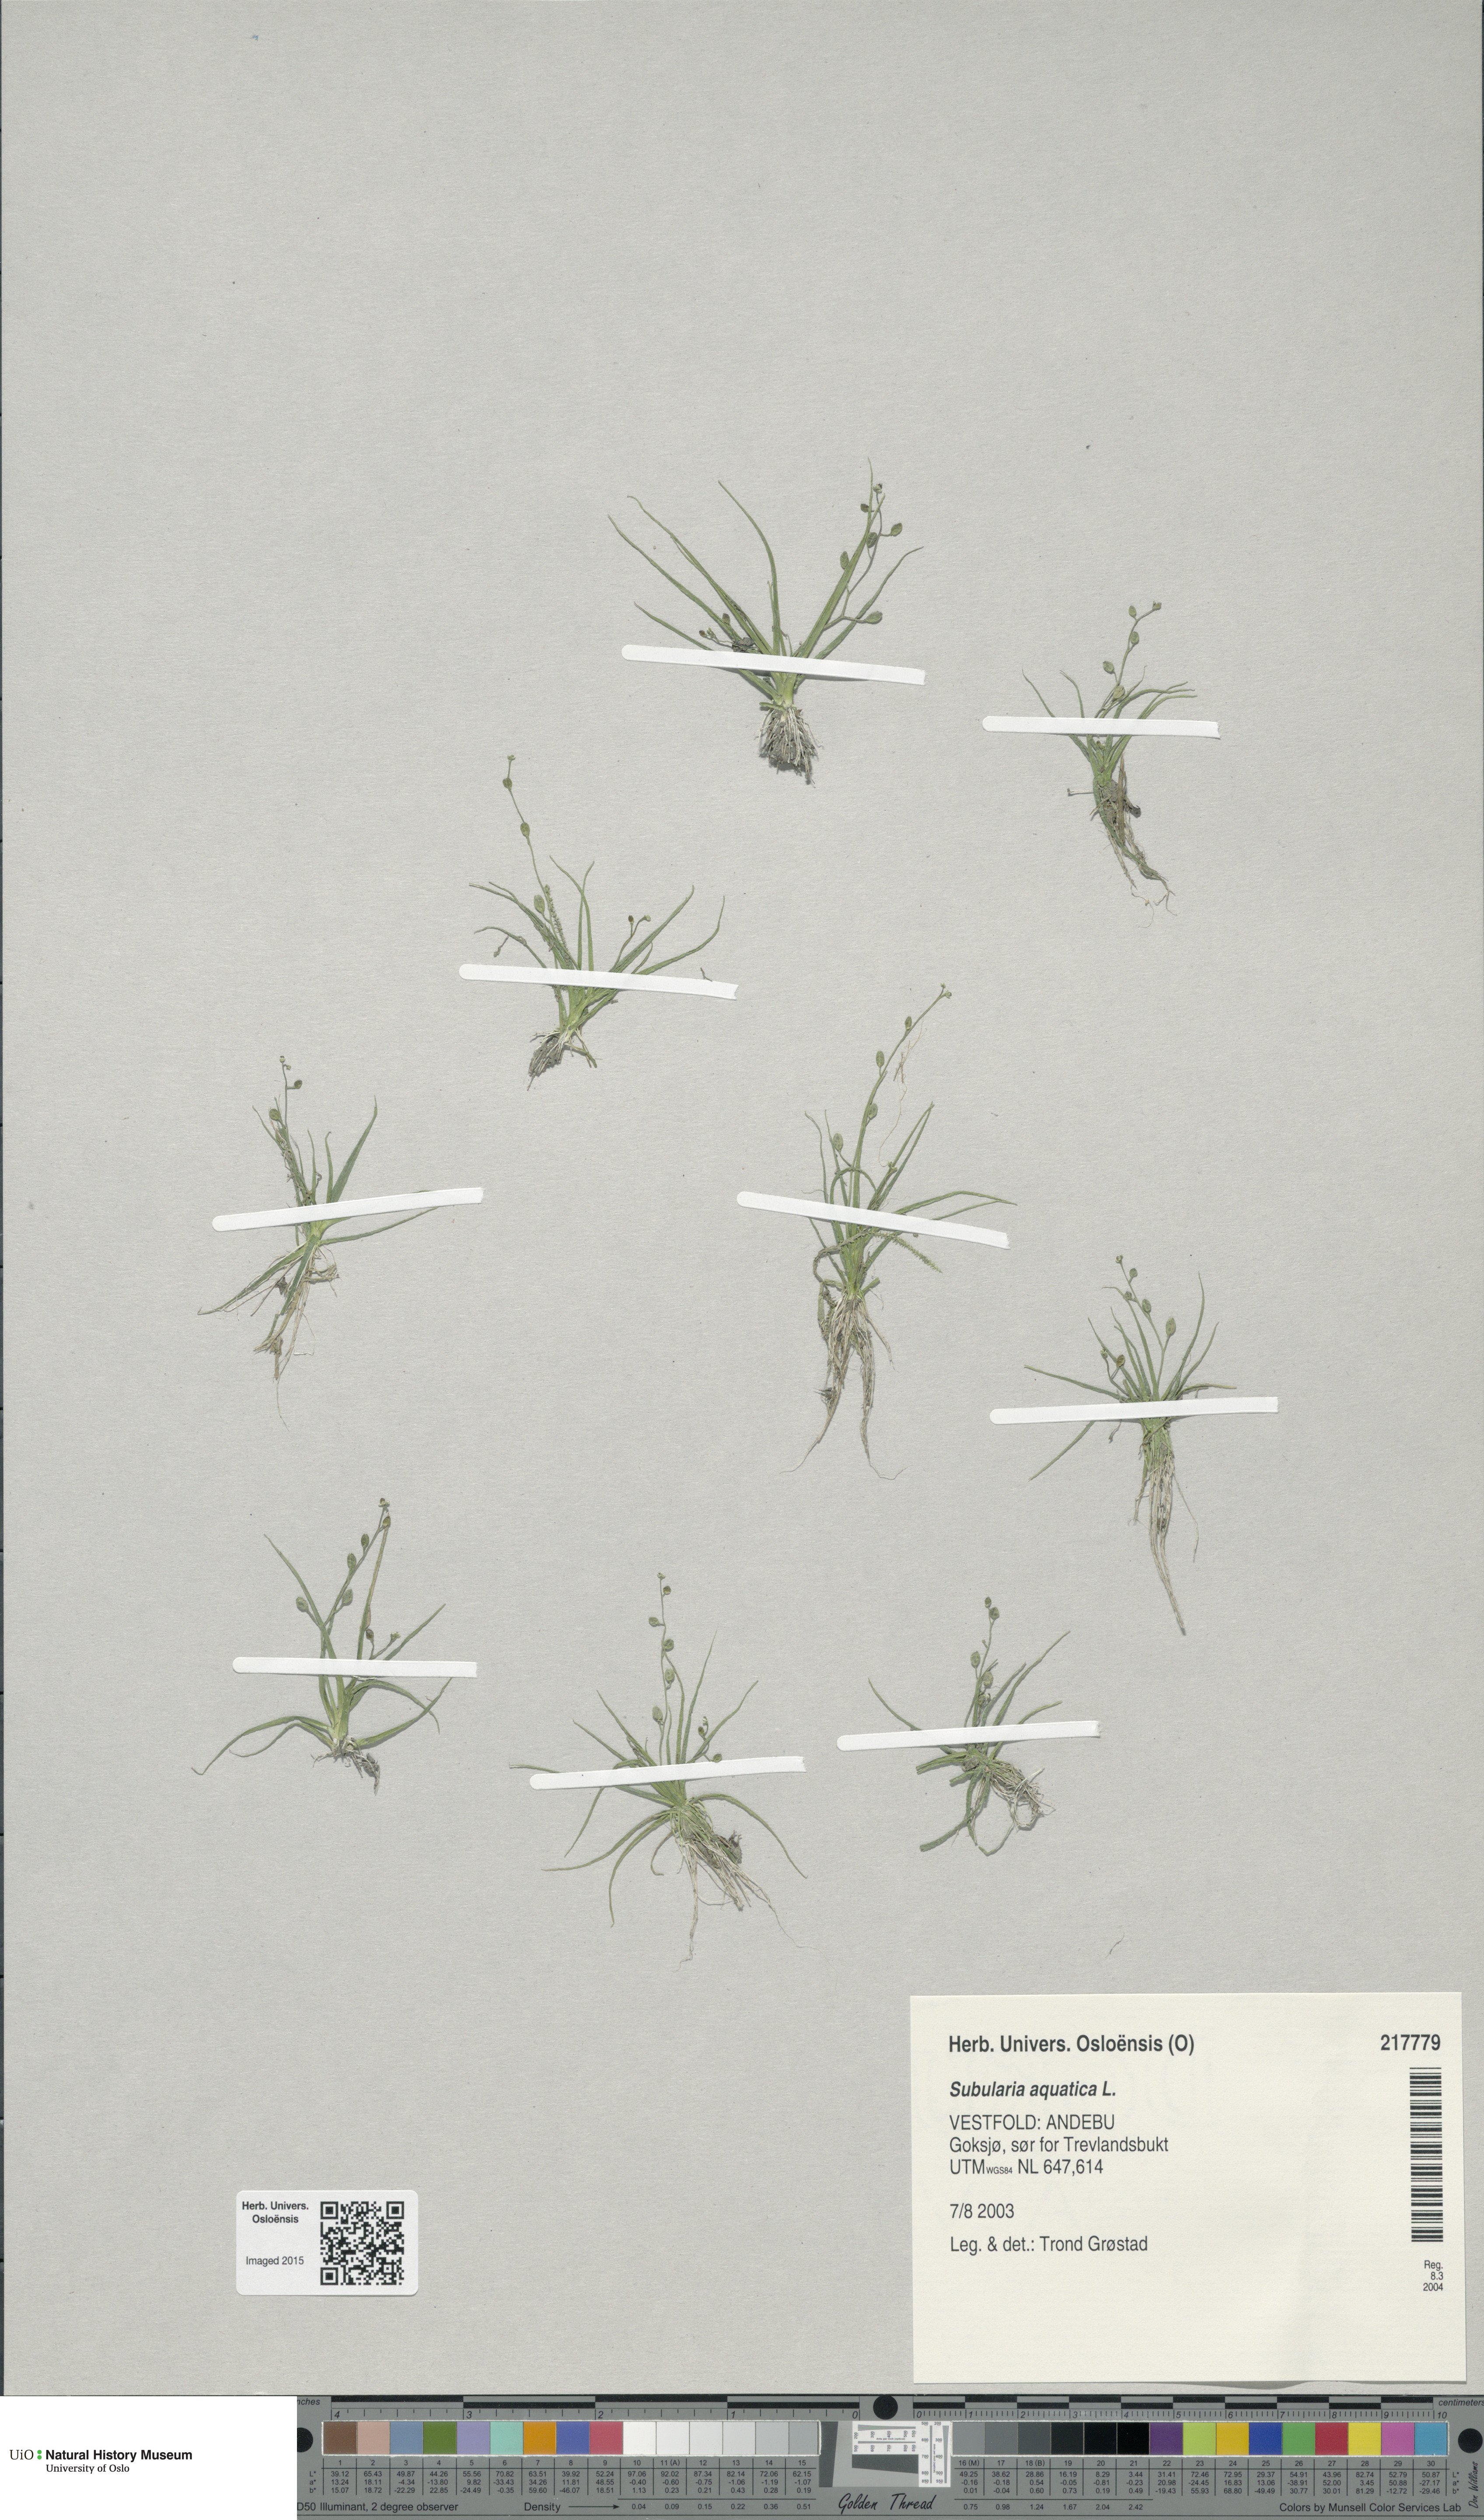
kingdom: Plantae
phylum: Tracheophyta
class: Magnoliopsida
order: Brassicales
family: Brassicaceae
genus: Subularia
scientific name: Subularia aquatica
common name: Awlwort
